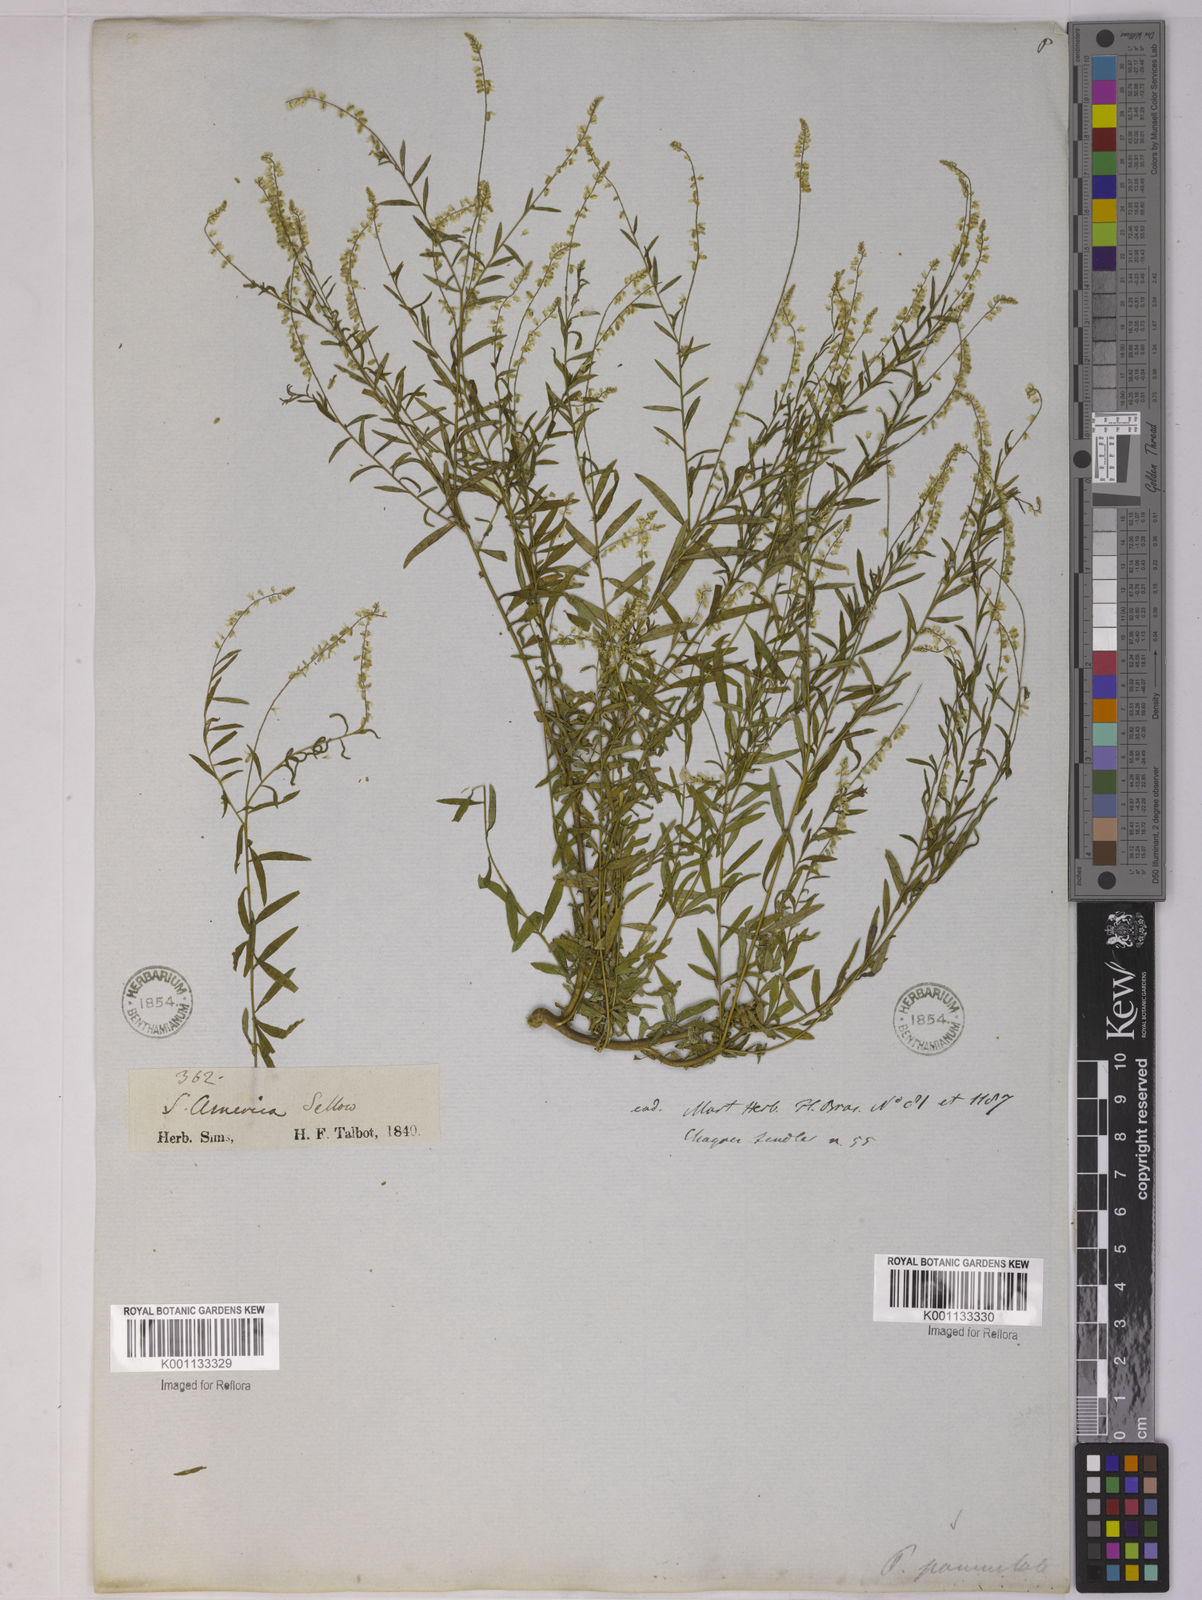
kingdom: Plantae
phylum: Tracheophyta
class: Magnoliopsida
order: Fabales
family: Polygalaceae
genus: Polygala
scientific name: Polygala paniculata
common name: Orosne
